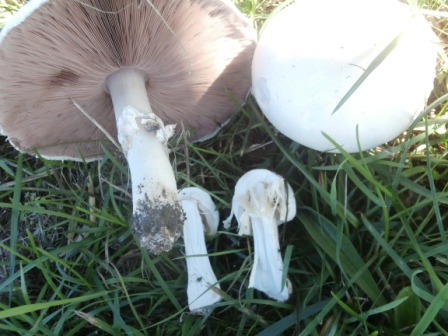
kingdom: Fungi
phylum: Basidiomycota
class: Agaricomycetes
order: Agaricales
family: Agaricaceae
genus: Agaricus
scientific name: Agaricus arvensis
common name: ager-champignon
